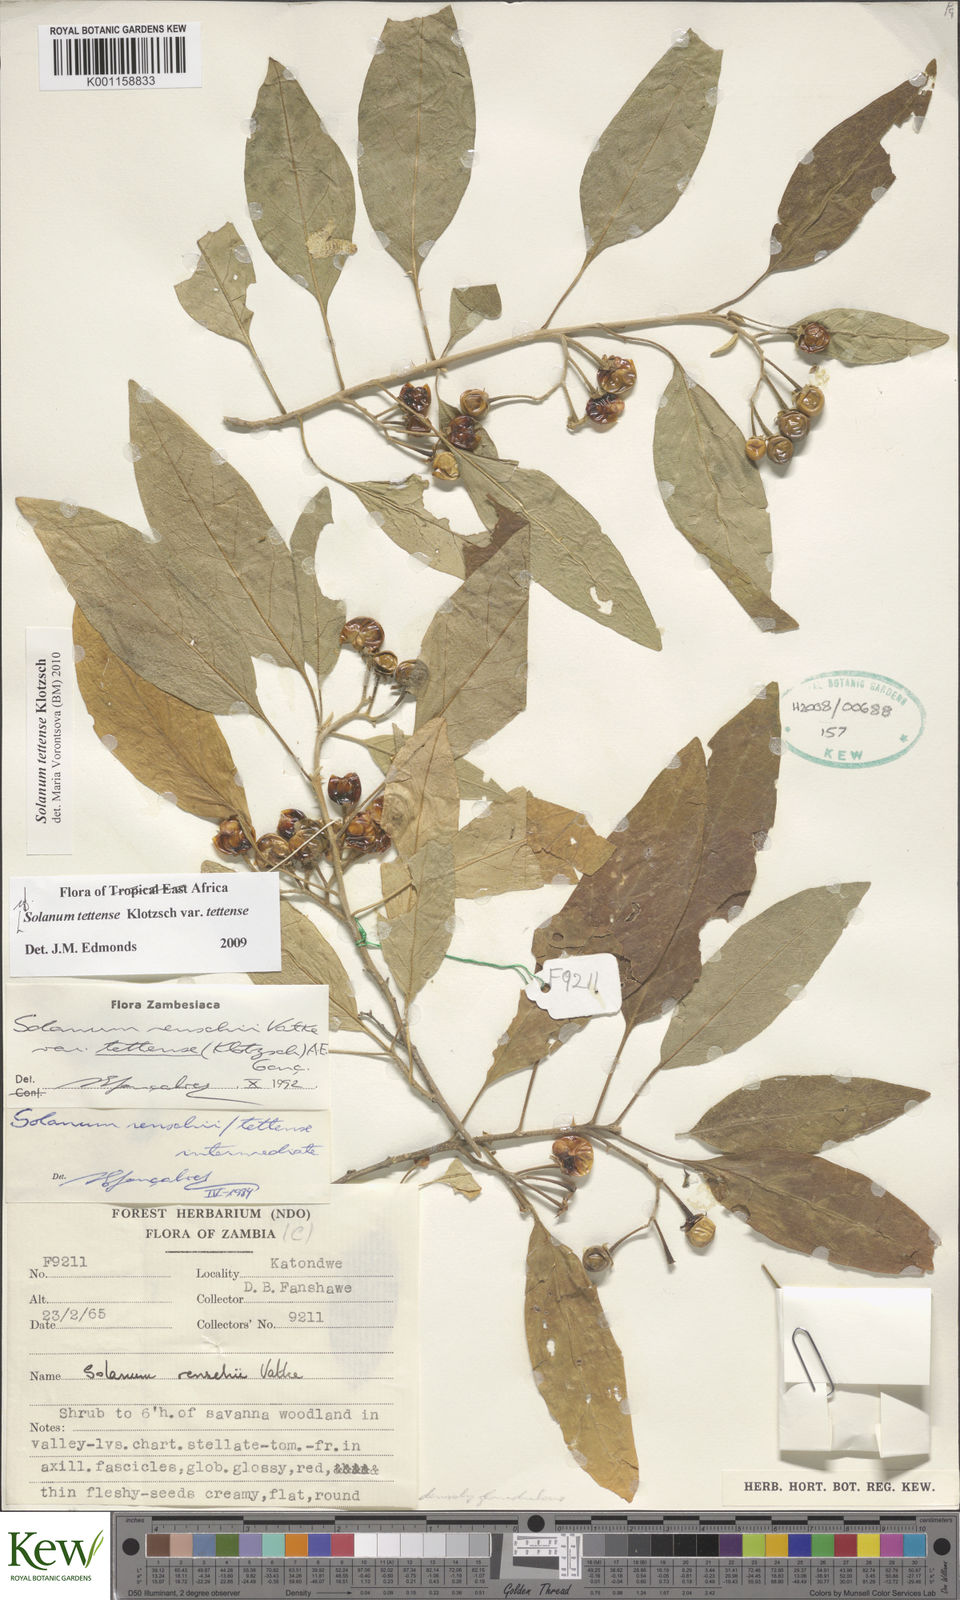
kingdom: Plantae
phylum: Tracheophyta
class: Magnoliopsida
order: Solanales
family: Solanaceae
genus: Solanum
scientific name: Solanum tettense
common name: Mozambique bitter apple
